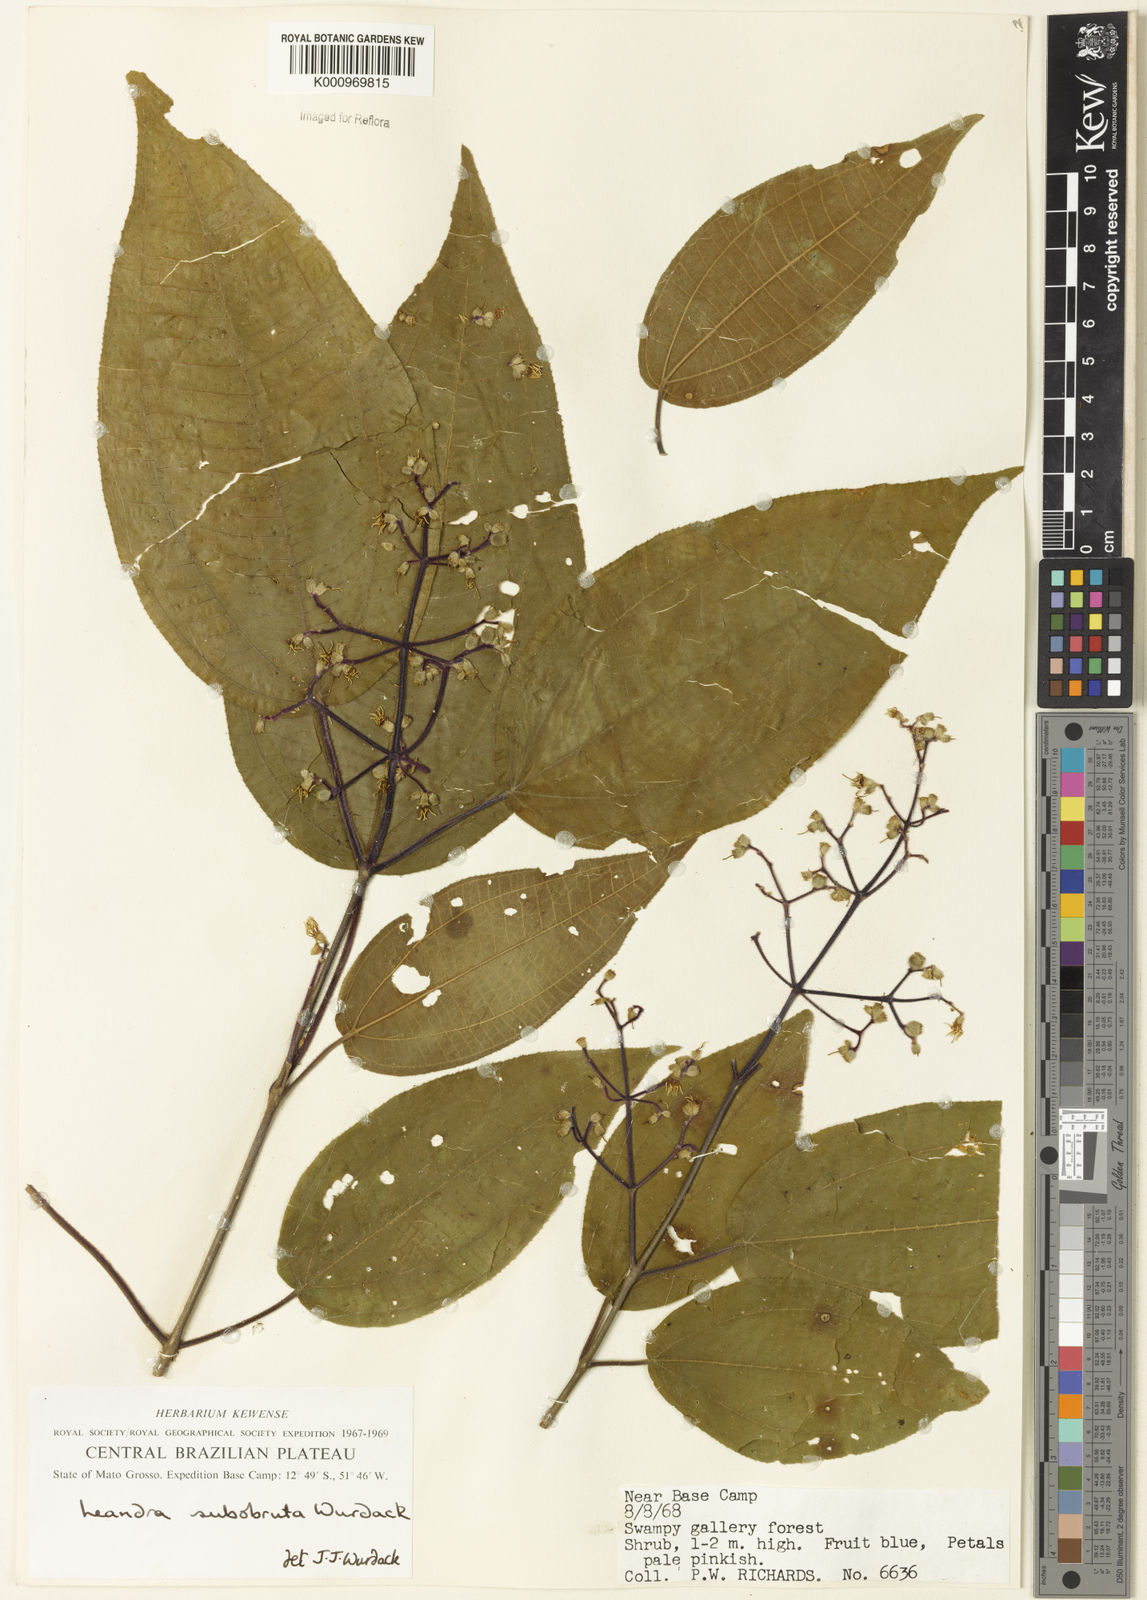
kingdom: Plantae
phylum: Tracheophyta
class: Magnoliopsida
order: Myrtales
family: Melastomataceae
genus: Miconia
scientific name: Miconia subobruta
